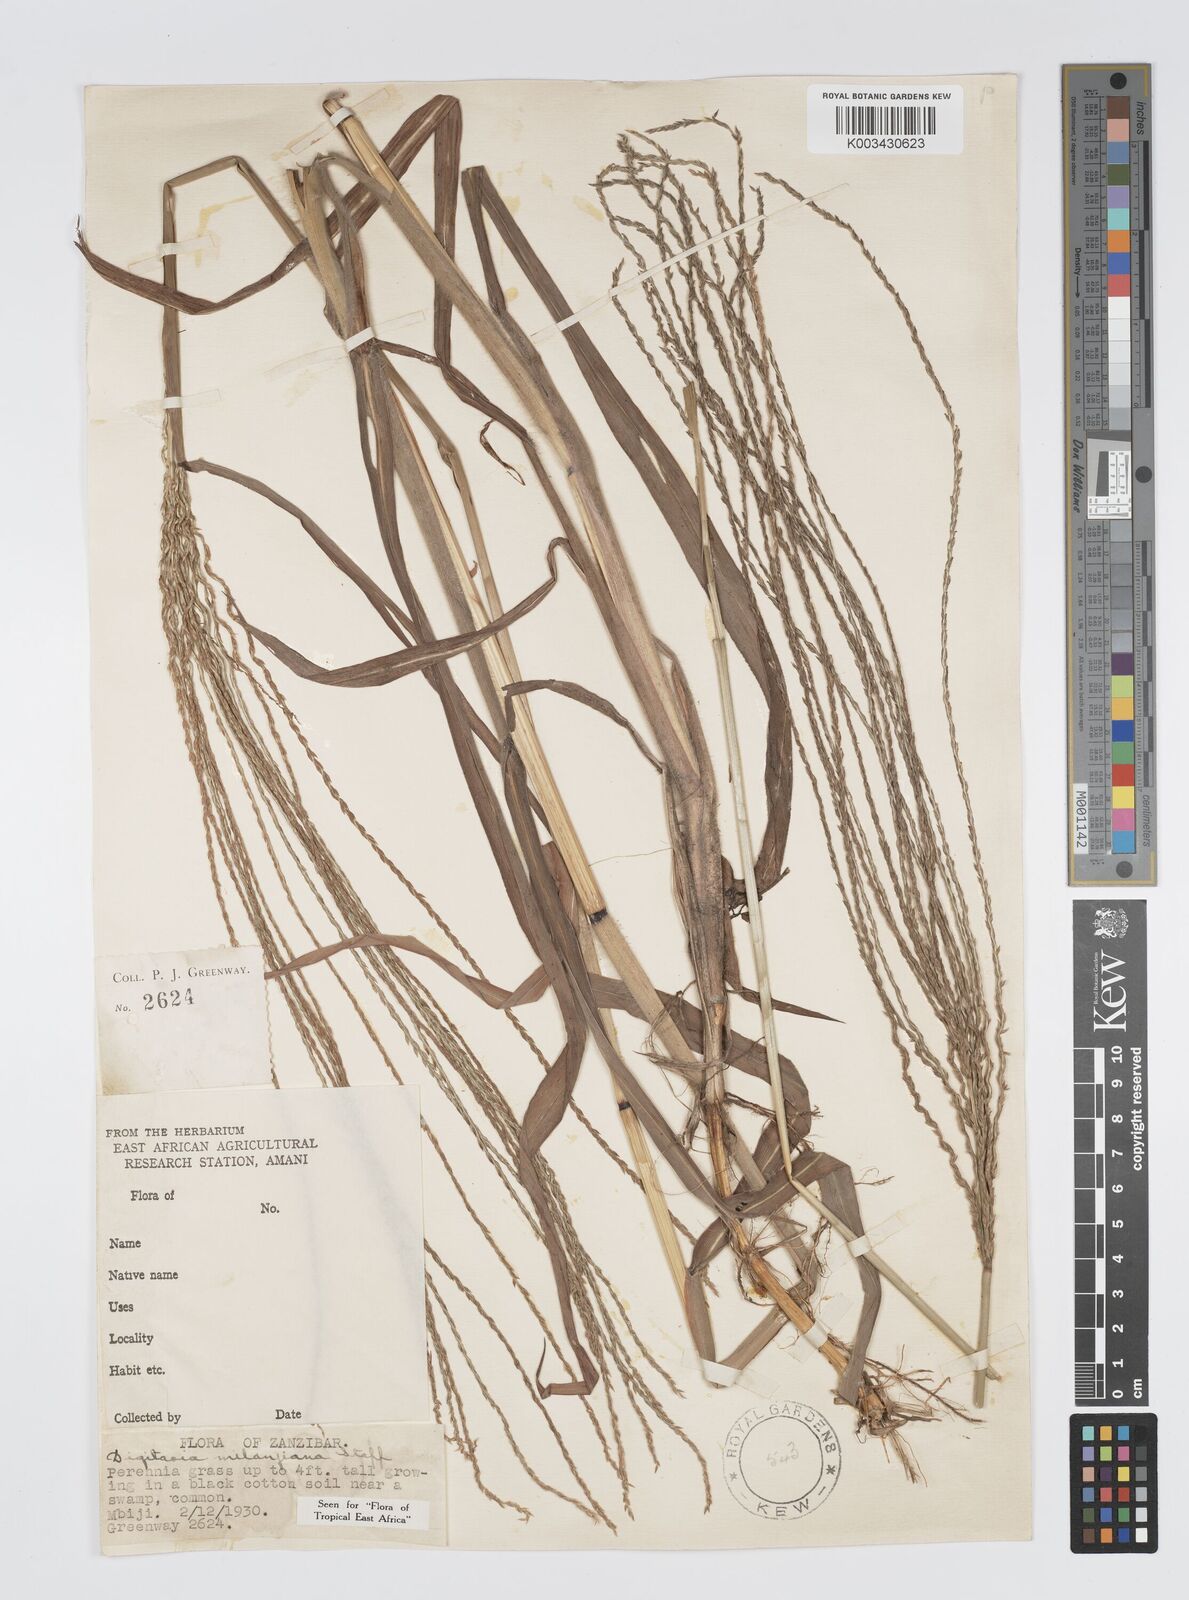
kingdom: Plantae
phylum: Tracheophyta
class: Liliopsida
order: Poales
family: Poaceae
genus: Digitaria
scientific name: Digitaria milanjiana
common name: Madagascar crabgrass
